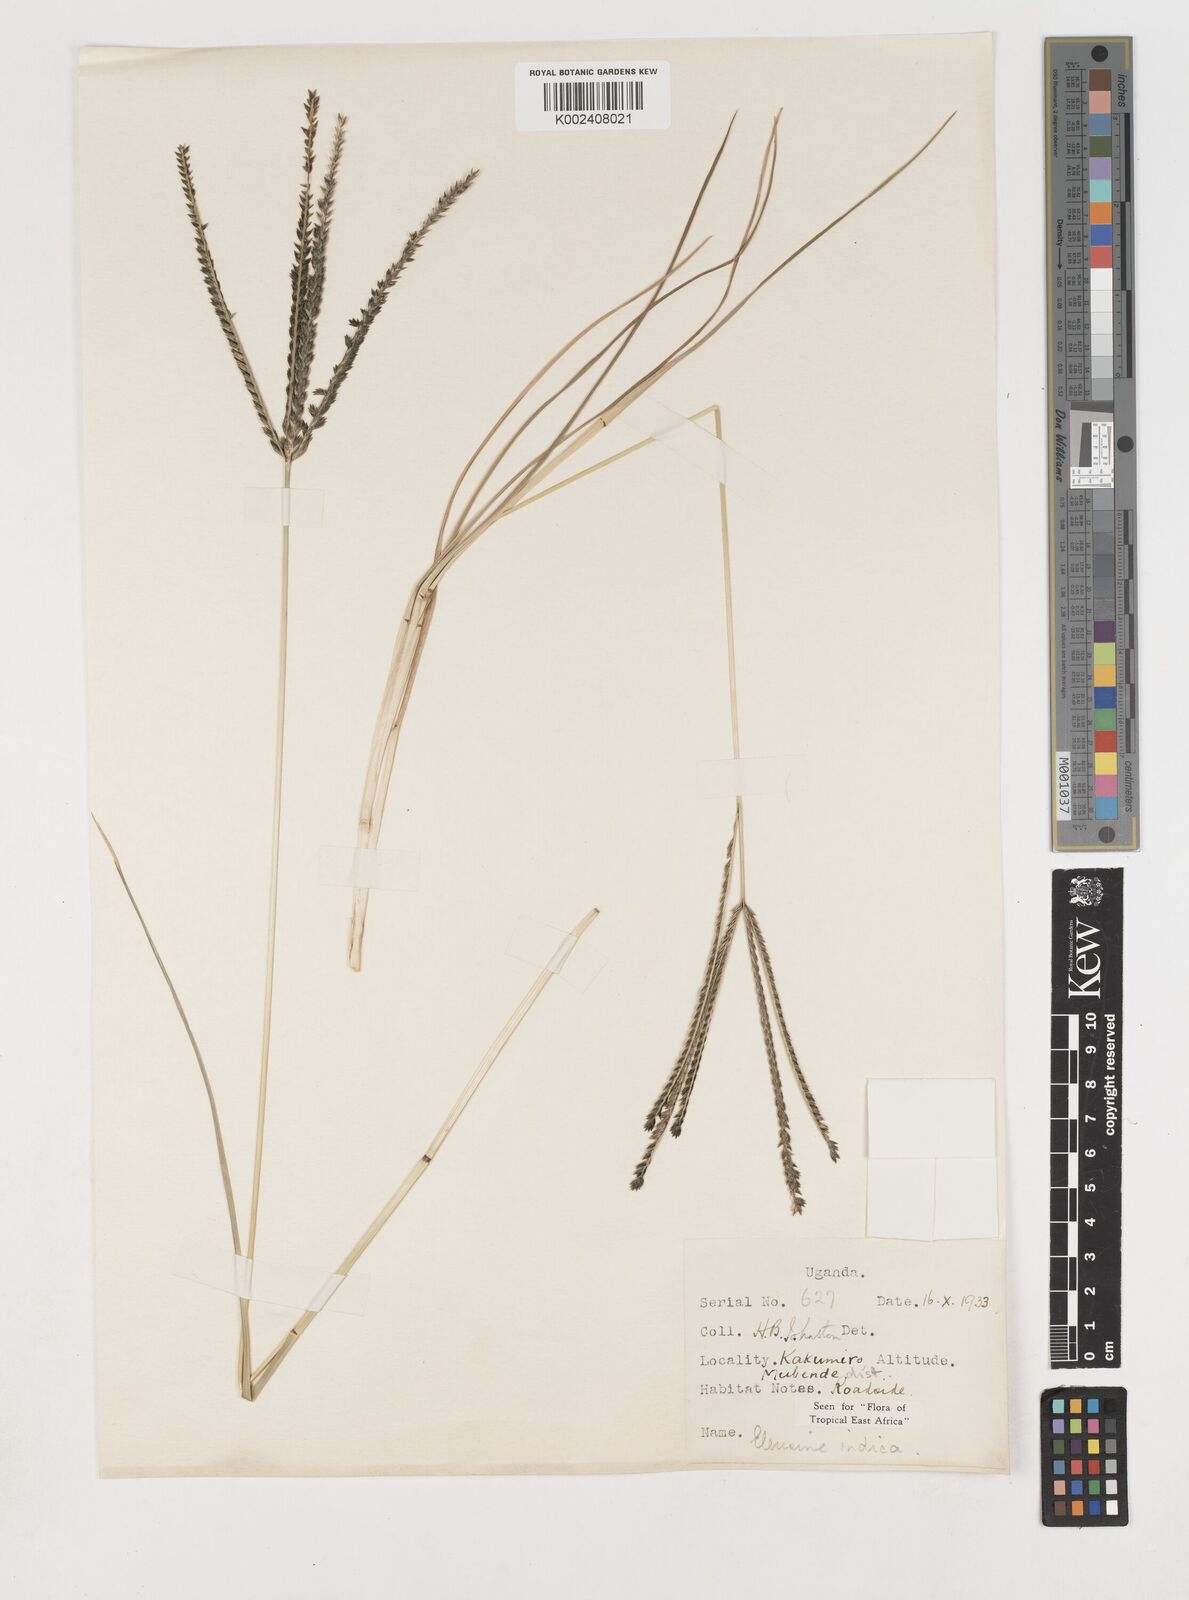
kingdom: Plantae
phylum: Tracheophyta
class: Liliopsida
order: Poales
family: Poaceae
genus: Eleusine
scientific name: Eleusine indica
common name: Yard-grass
